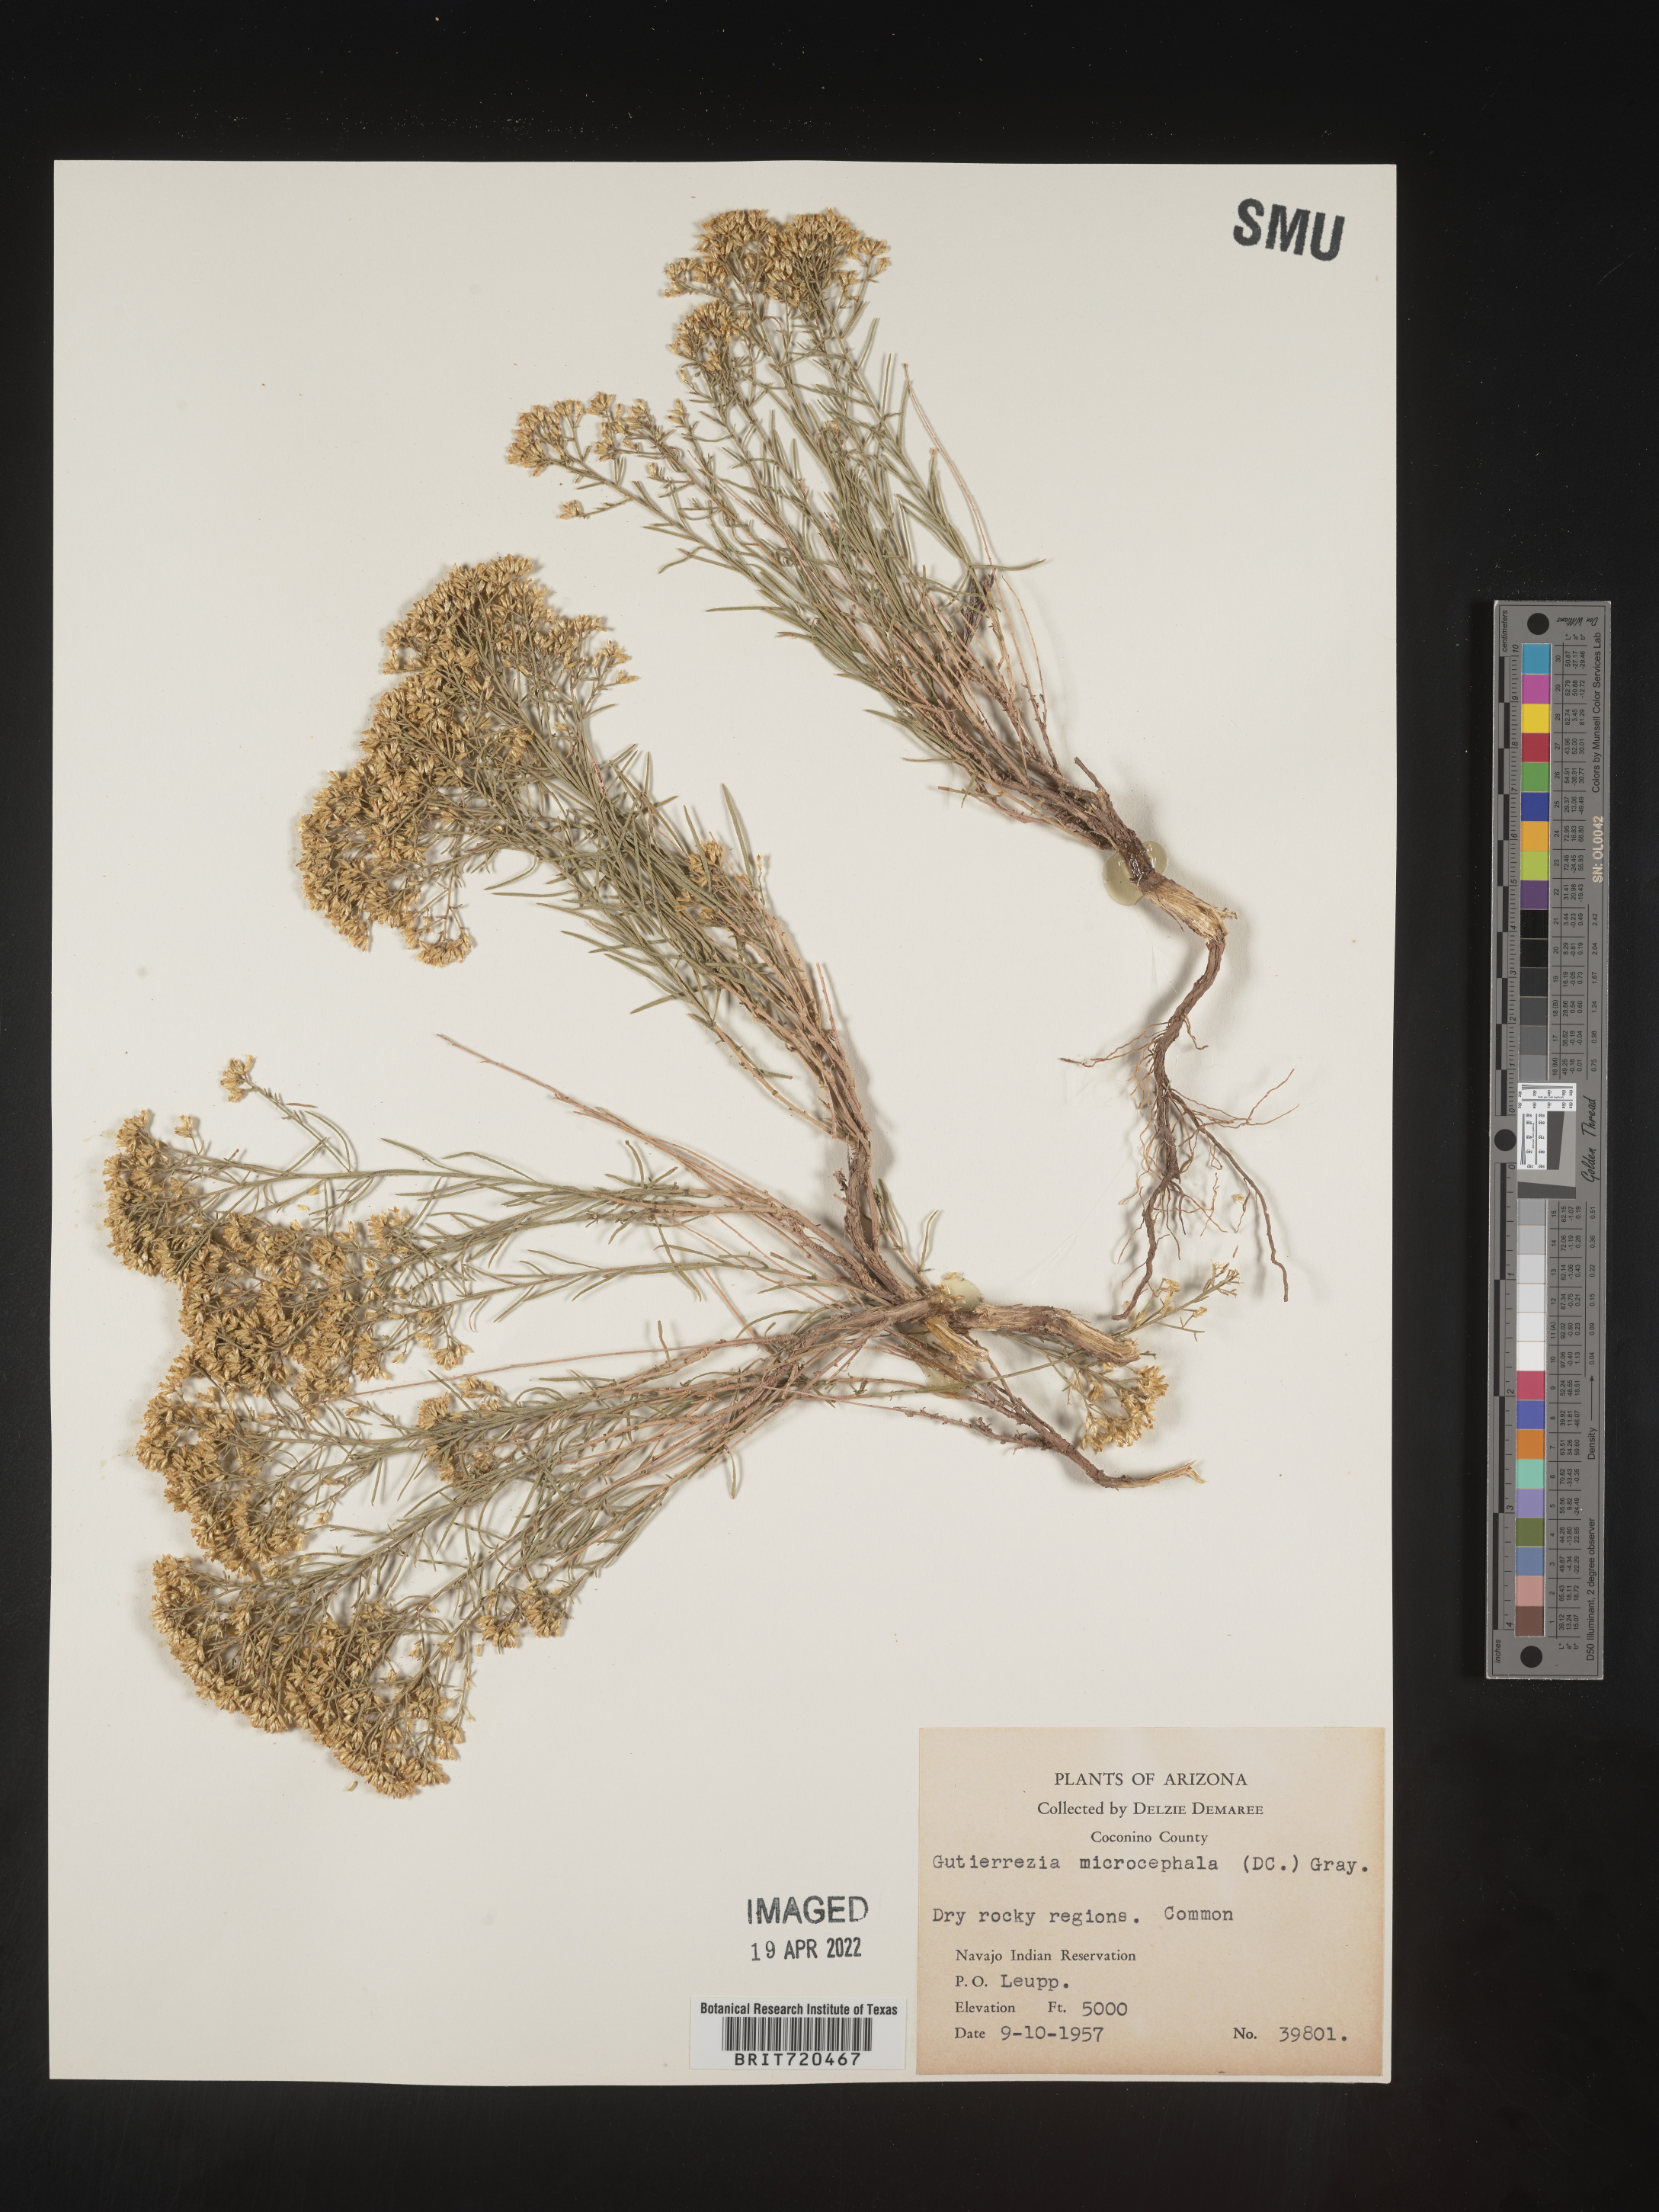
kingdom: Plantae
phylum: Tracheophyta
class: Magnoliopsida
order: Asterales
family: Asteraceae
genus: Gutierrezia
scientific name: Gutierrezia microcephala
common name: Thread snakeweed
